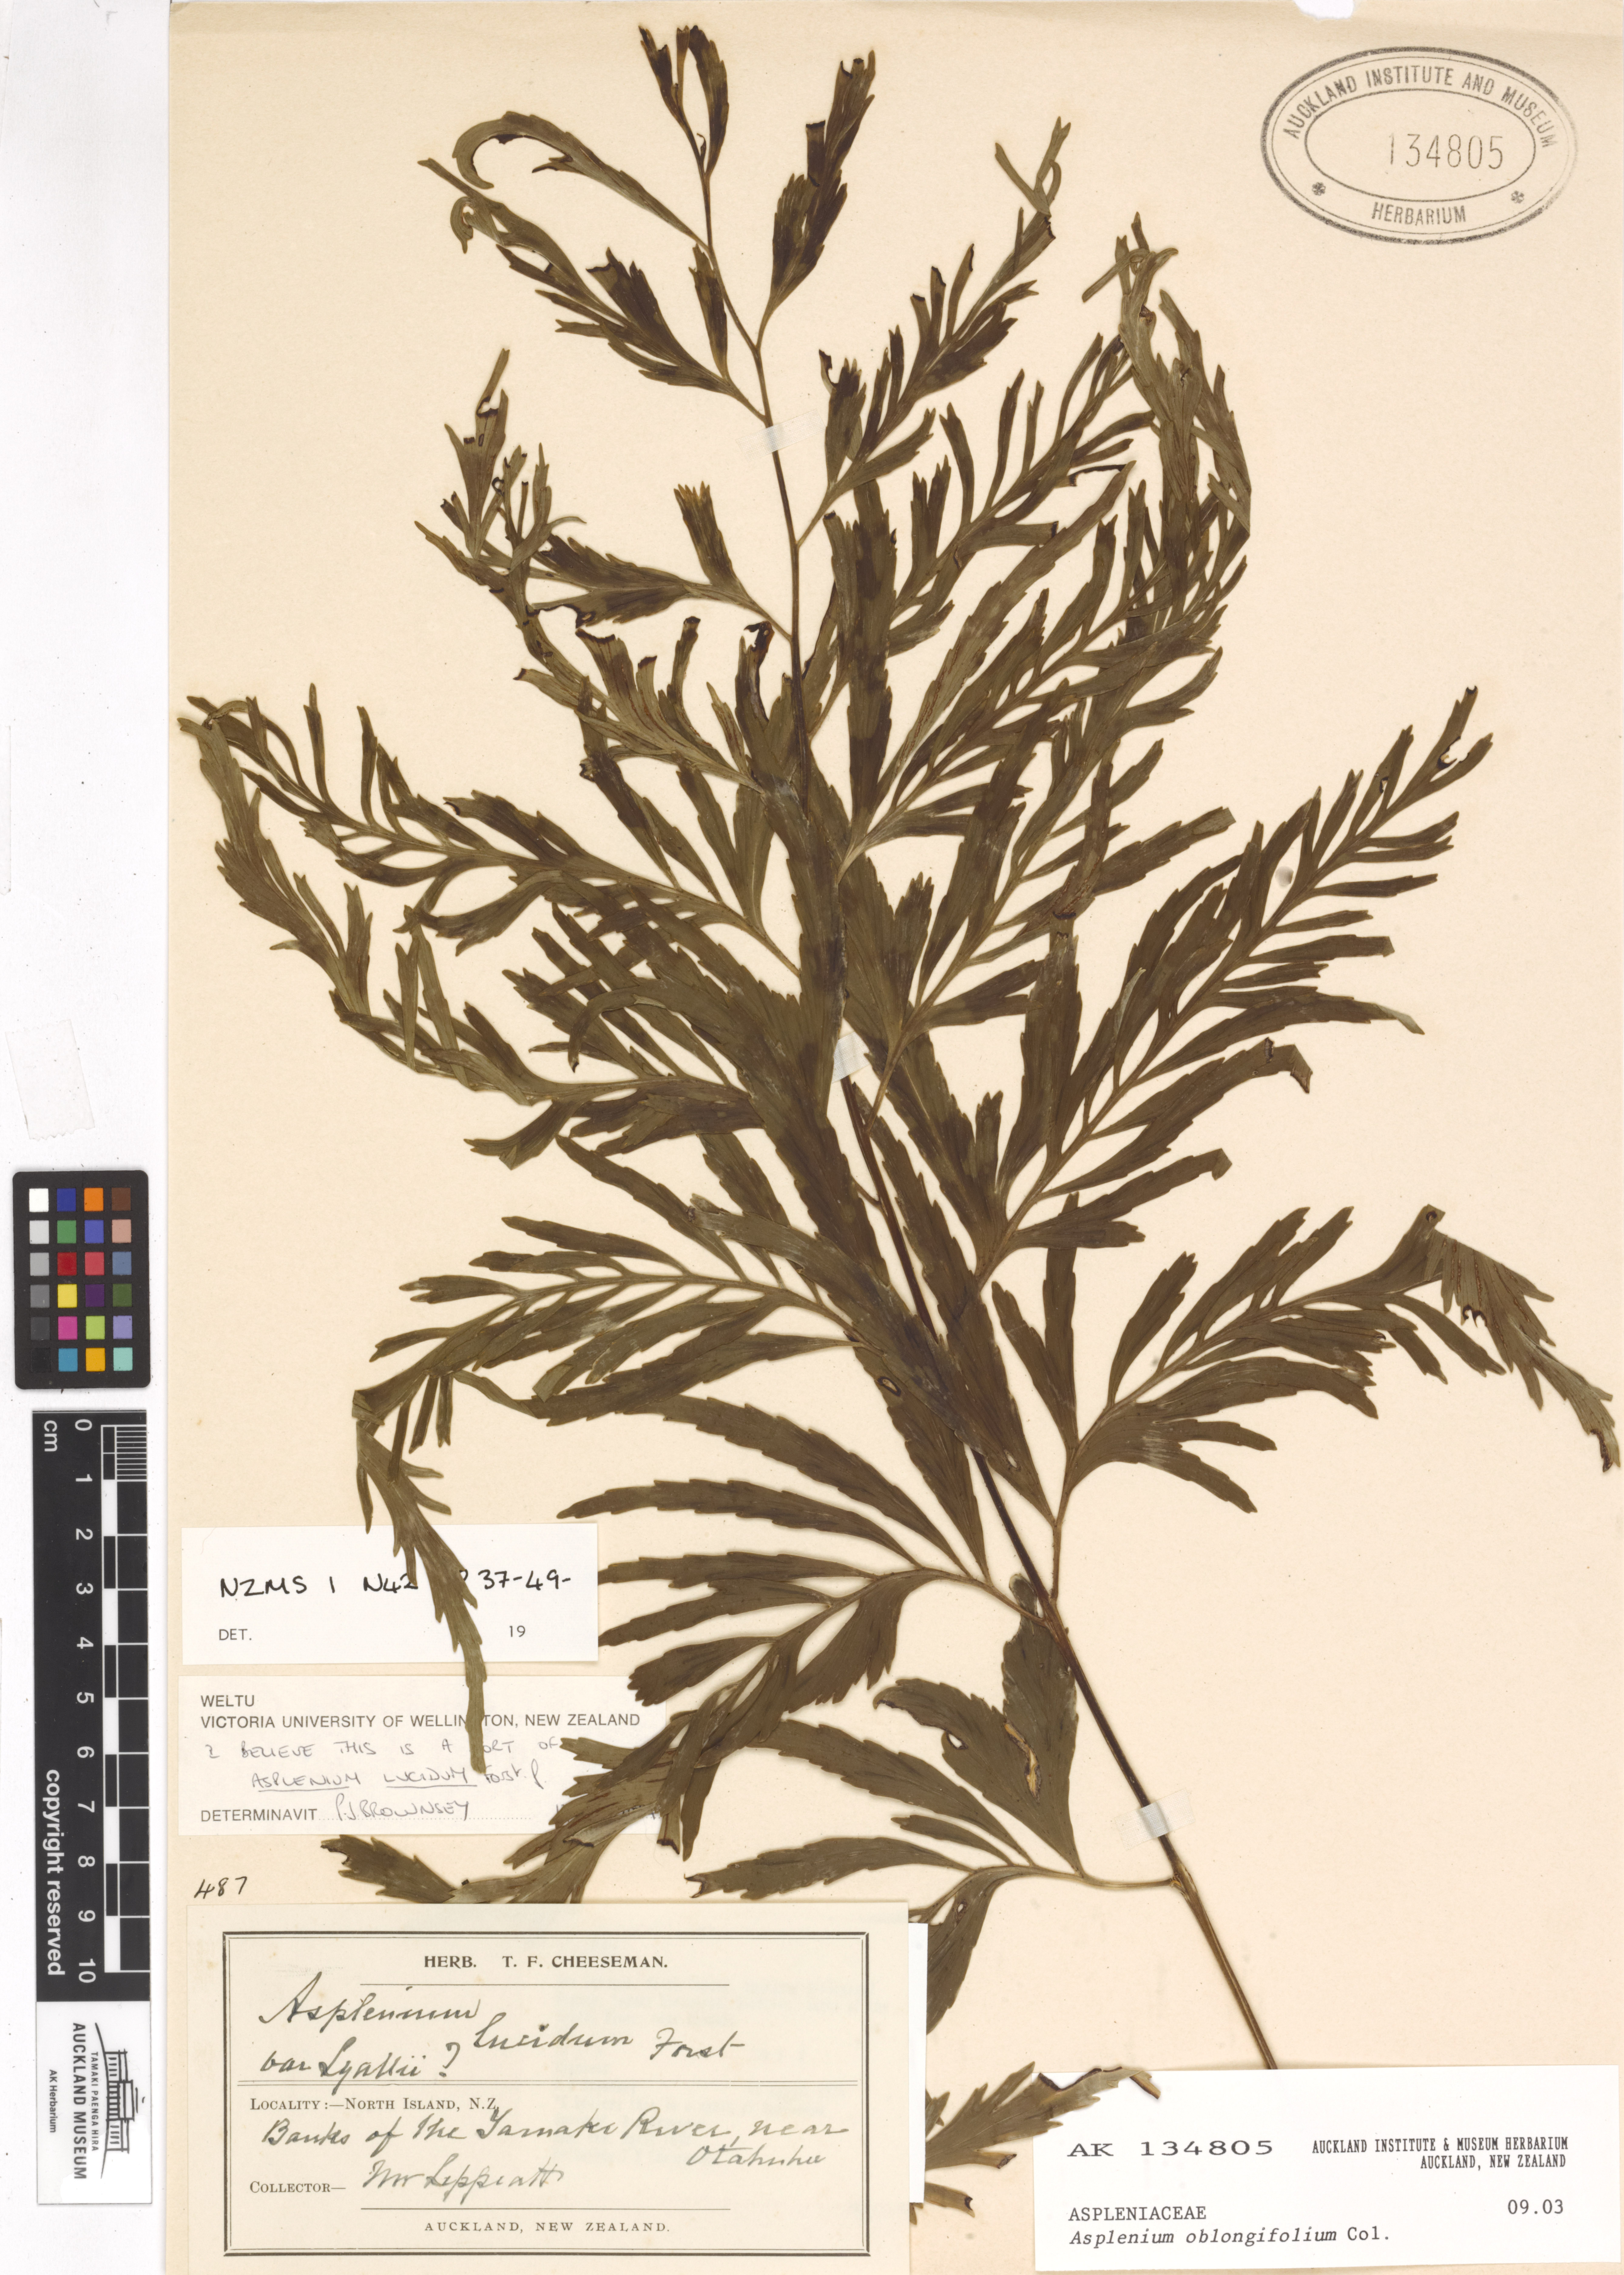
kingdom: Plantae
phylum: Tracheophyta
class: Polypodiopsida
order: Polypodiales
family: Aspleniaceae
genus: Asplenium
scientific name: Asplenium oblongifolium
